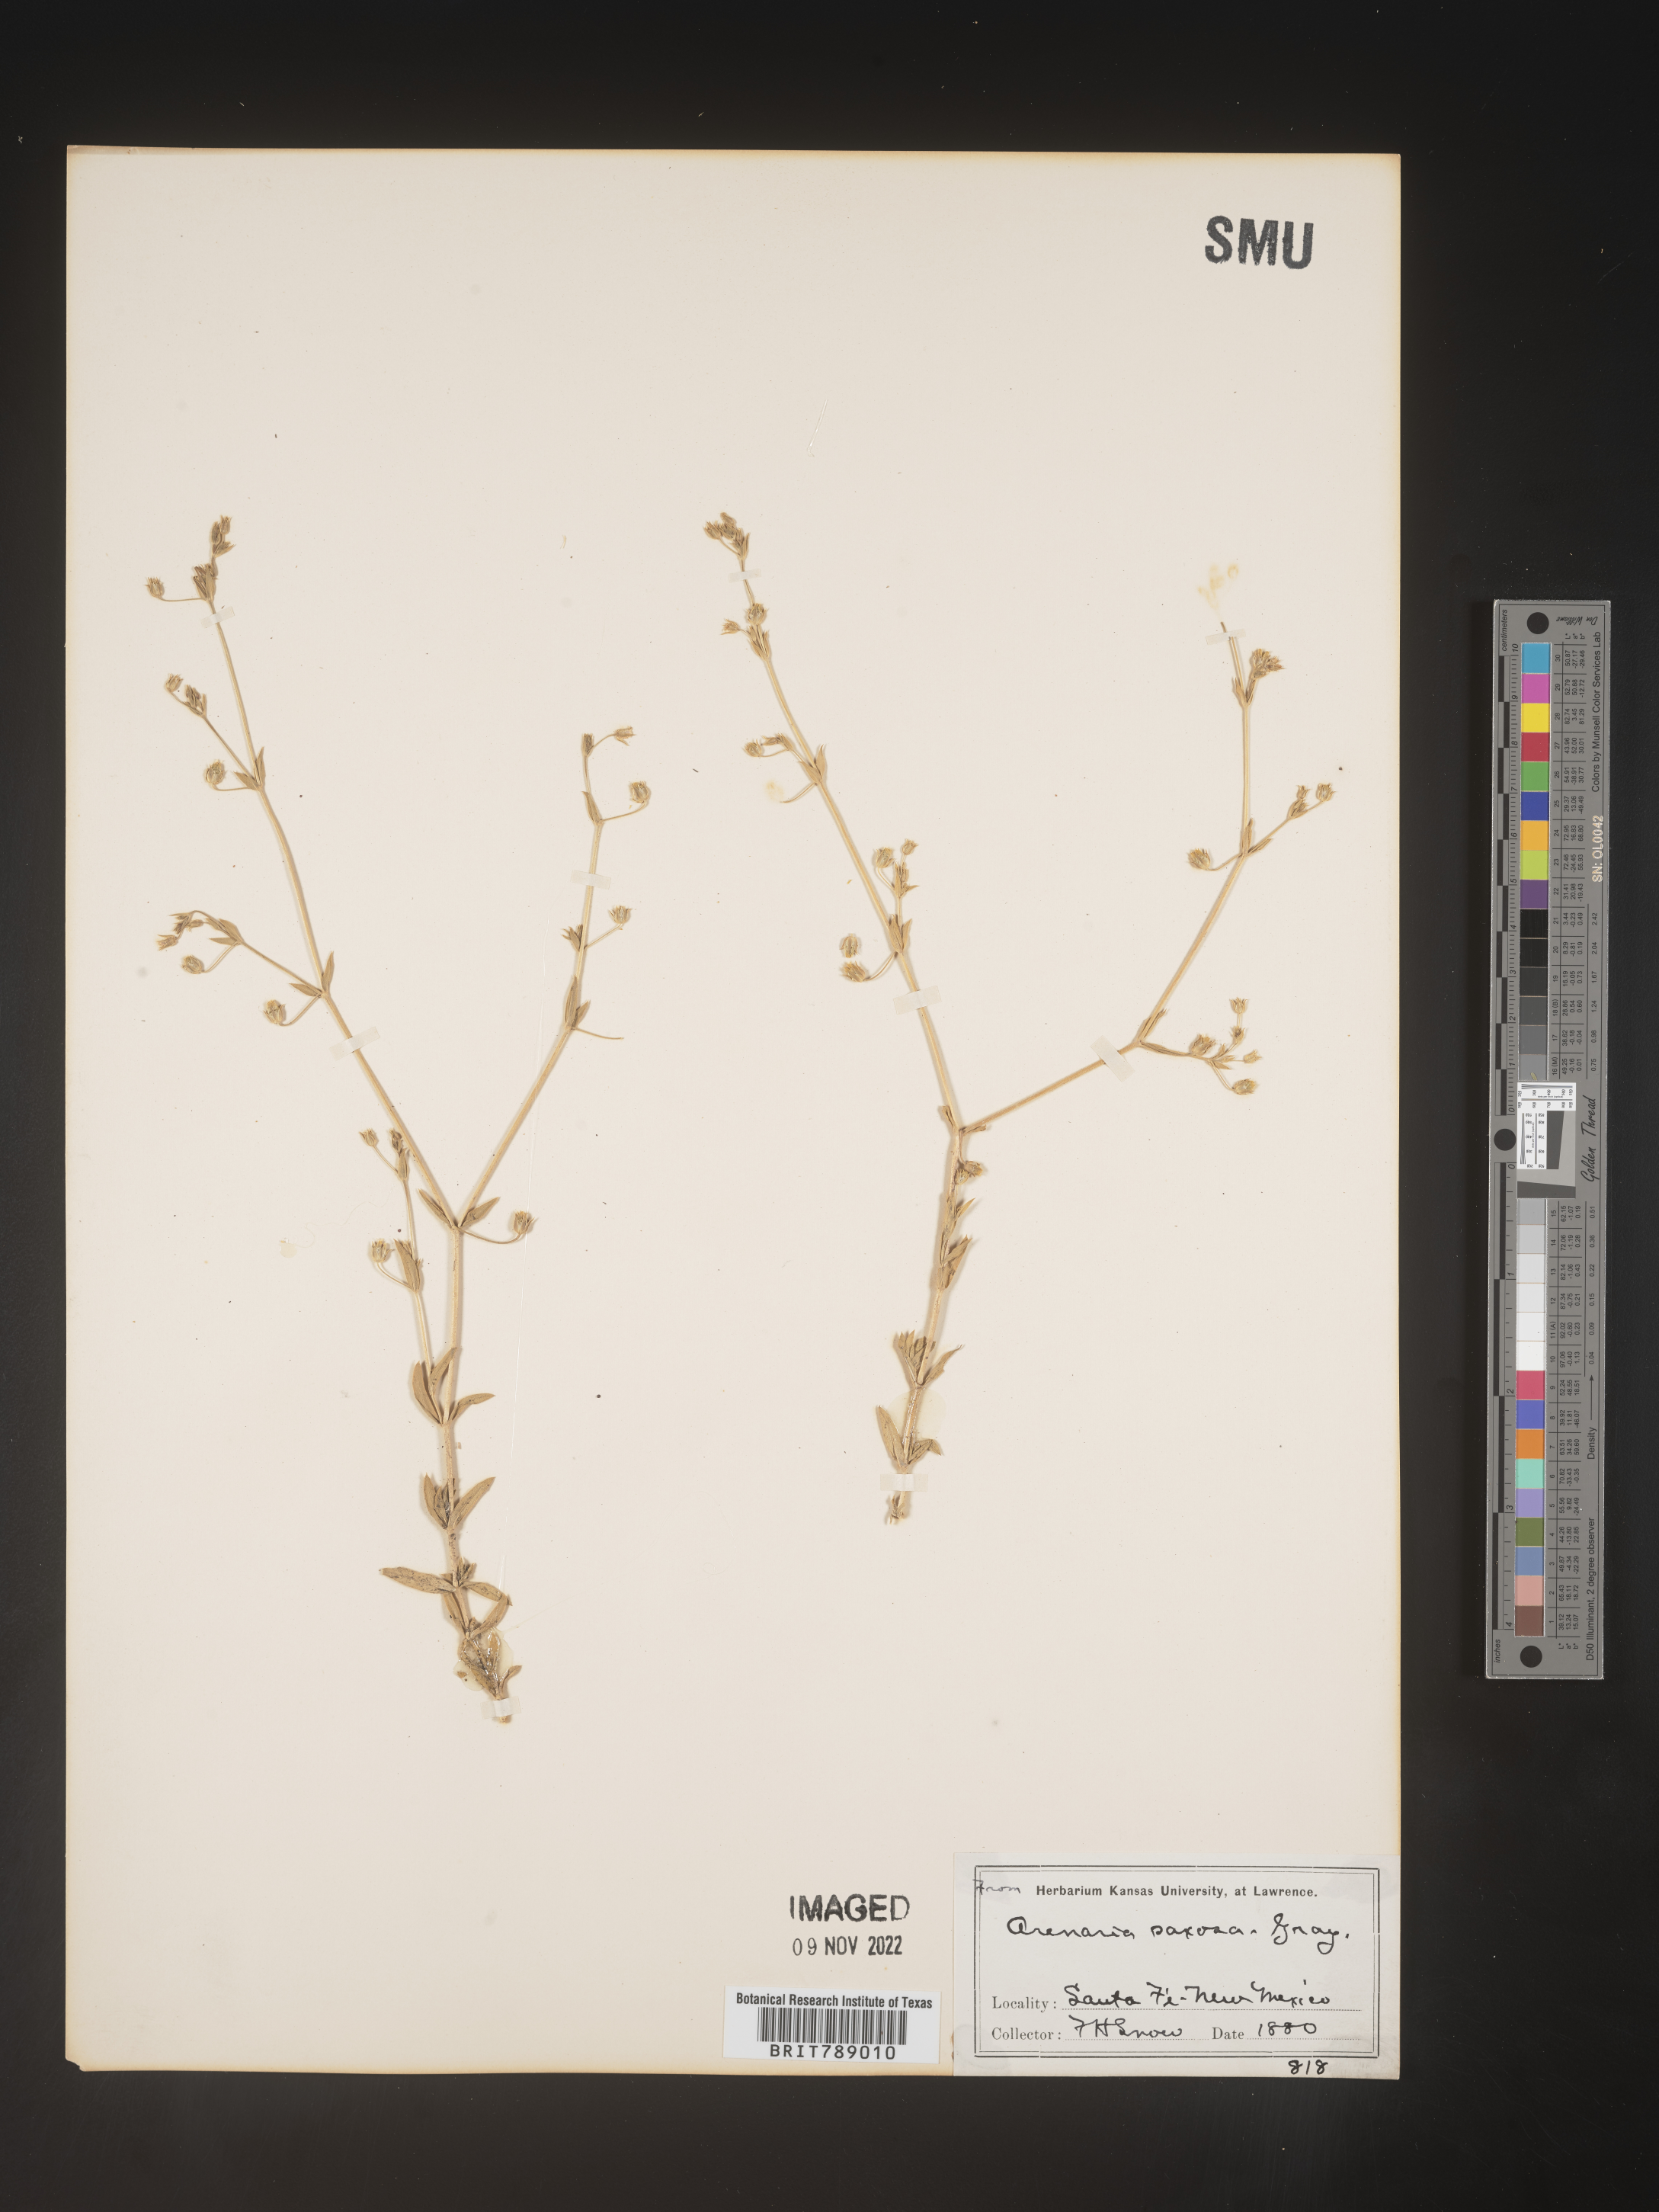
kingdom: Plantae
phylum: Tracheophyta
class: Magnoliopsida
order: Caryophyllales
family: Caryophyllaceae
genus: Arenaria
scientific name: Arenaria
